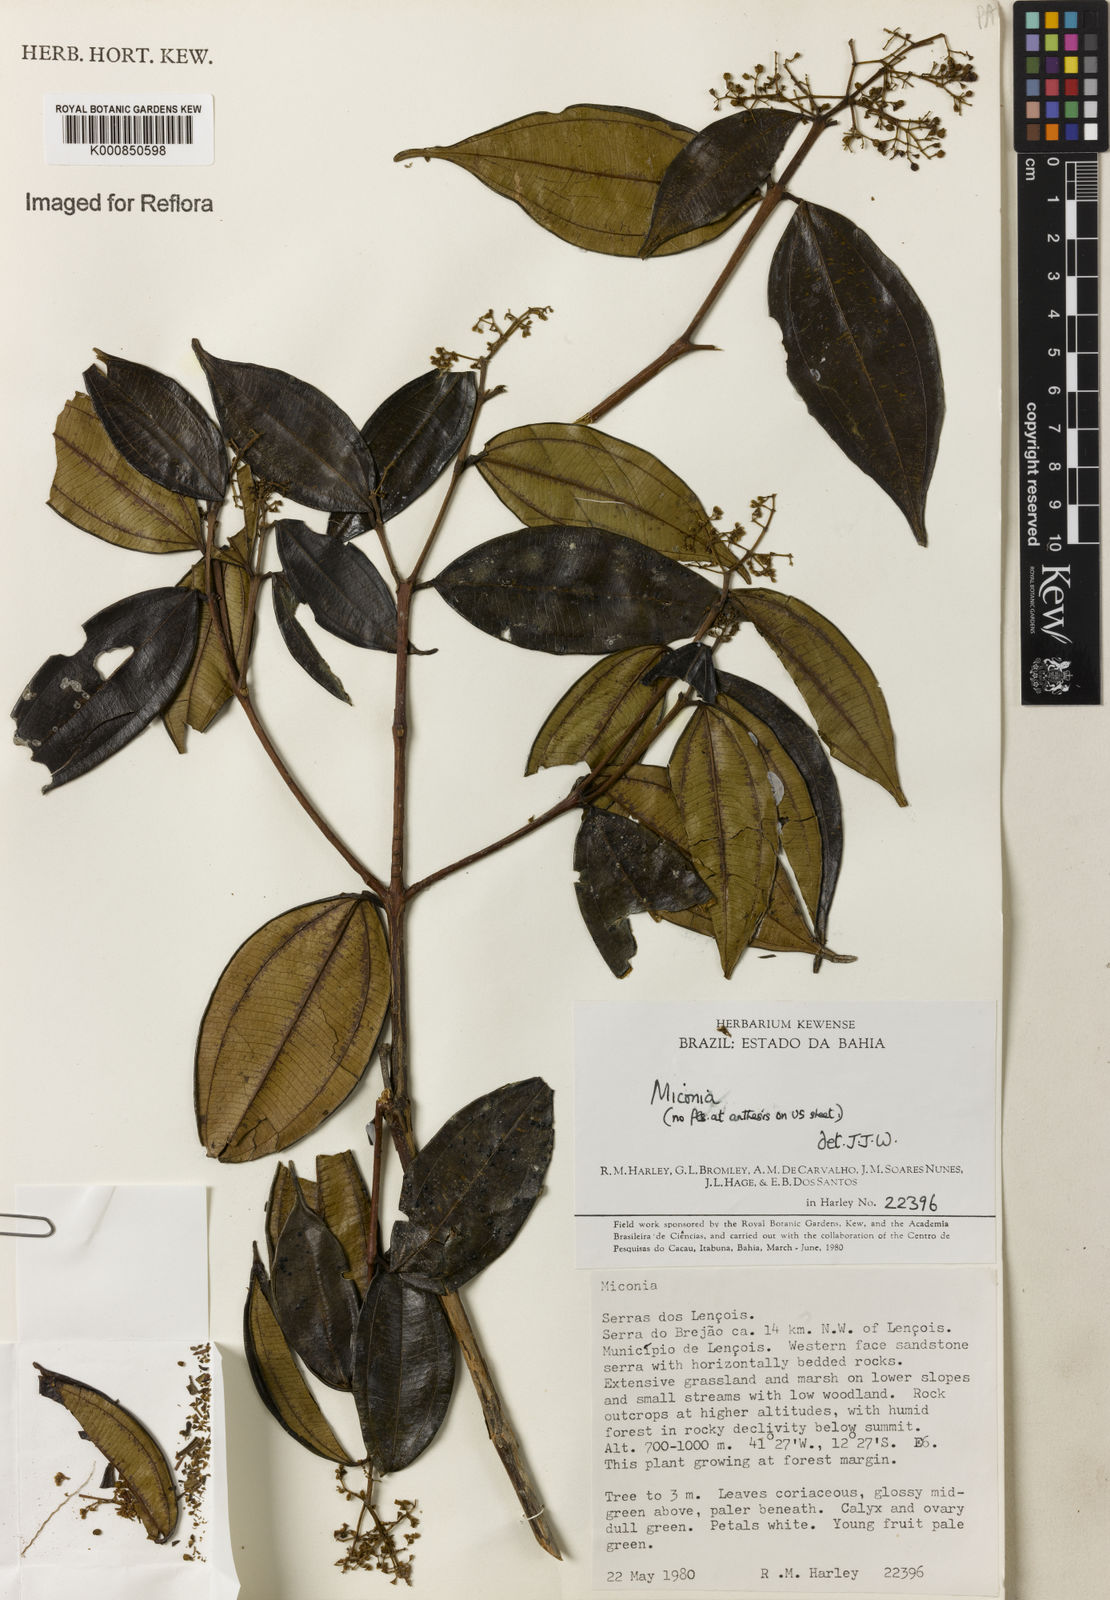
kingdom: Plantae
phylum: Tracheophyta
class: Magnoliopsida
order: Myrtales
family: Melastomataceae
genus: Miconia
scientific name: Miconia
